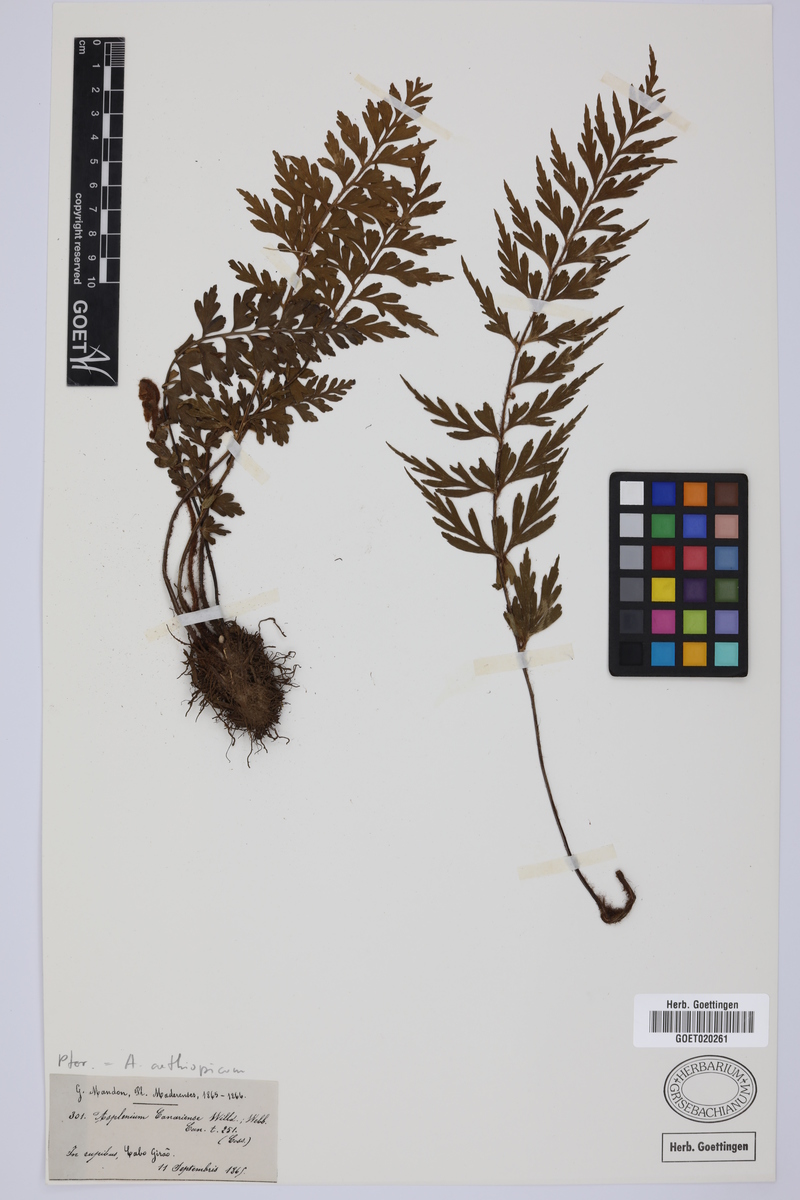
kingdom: Plantae
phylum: Tracheophyta
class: Polypodiopsida
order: Polypodiales
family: Aspleniaceae
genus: Asplenium
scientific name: Asplenium aethiopicum
